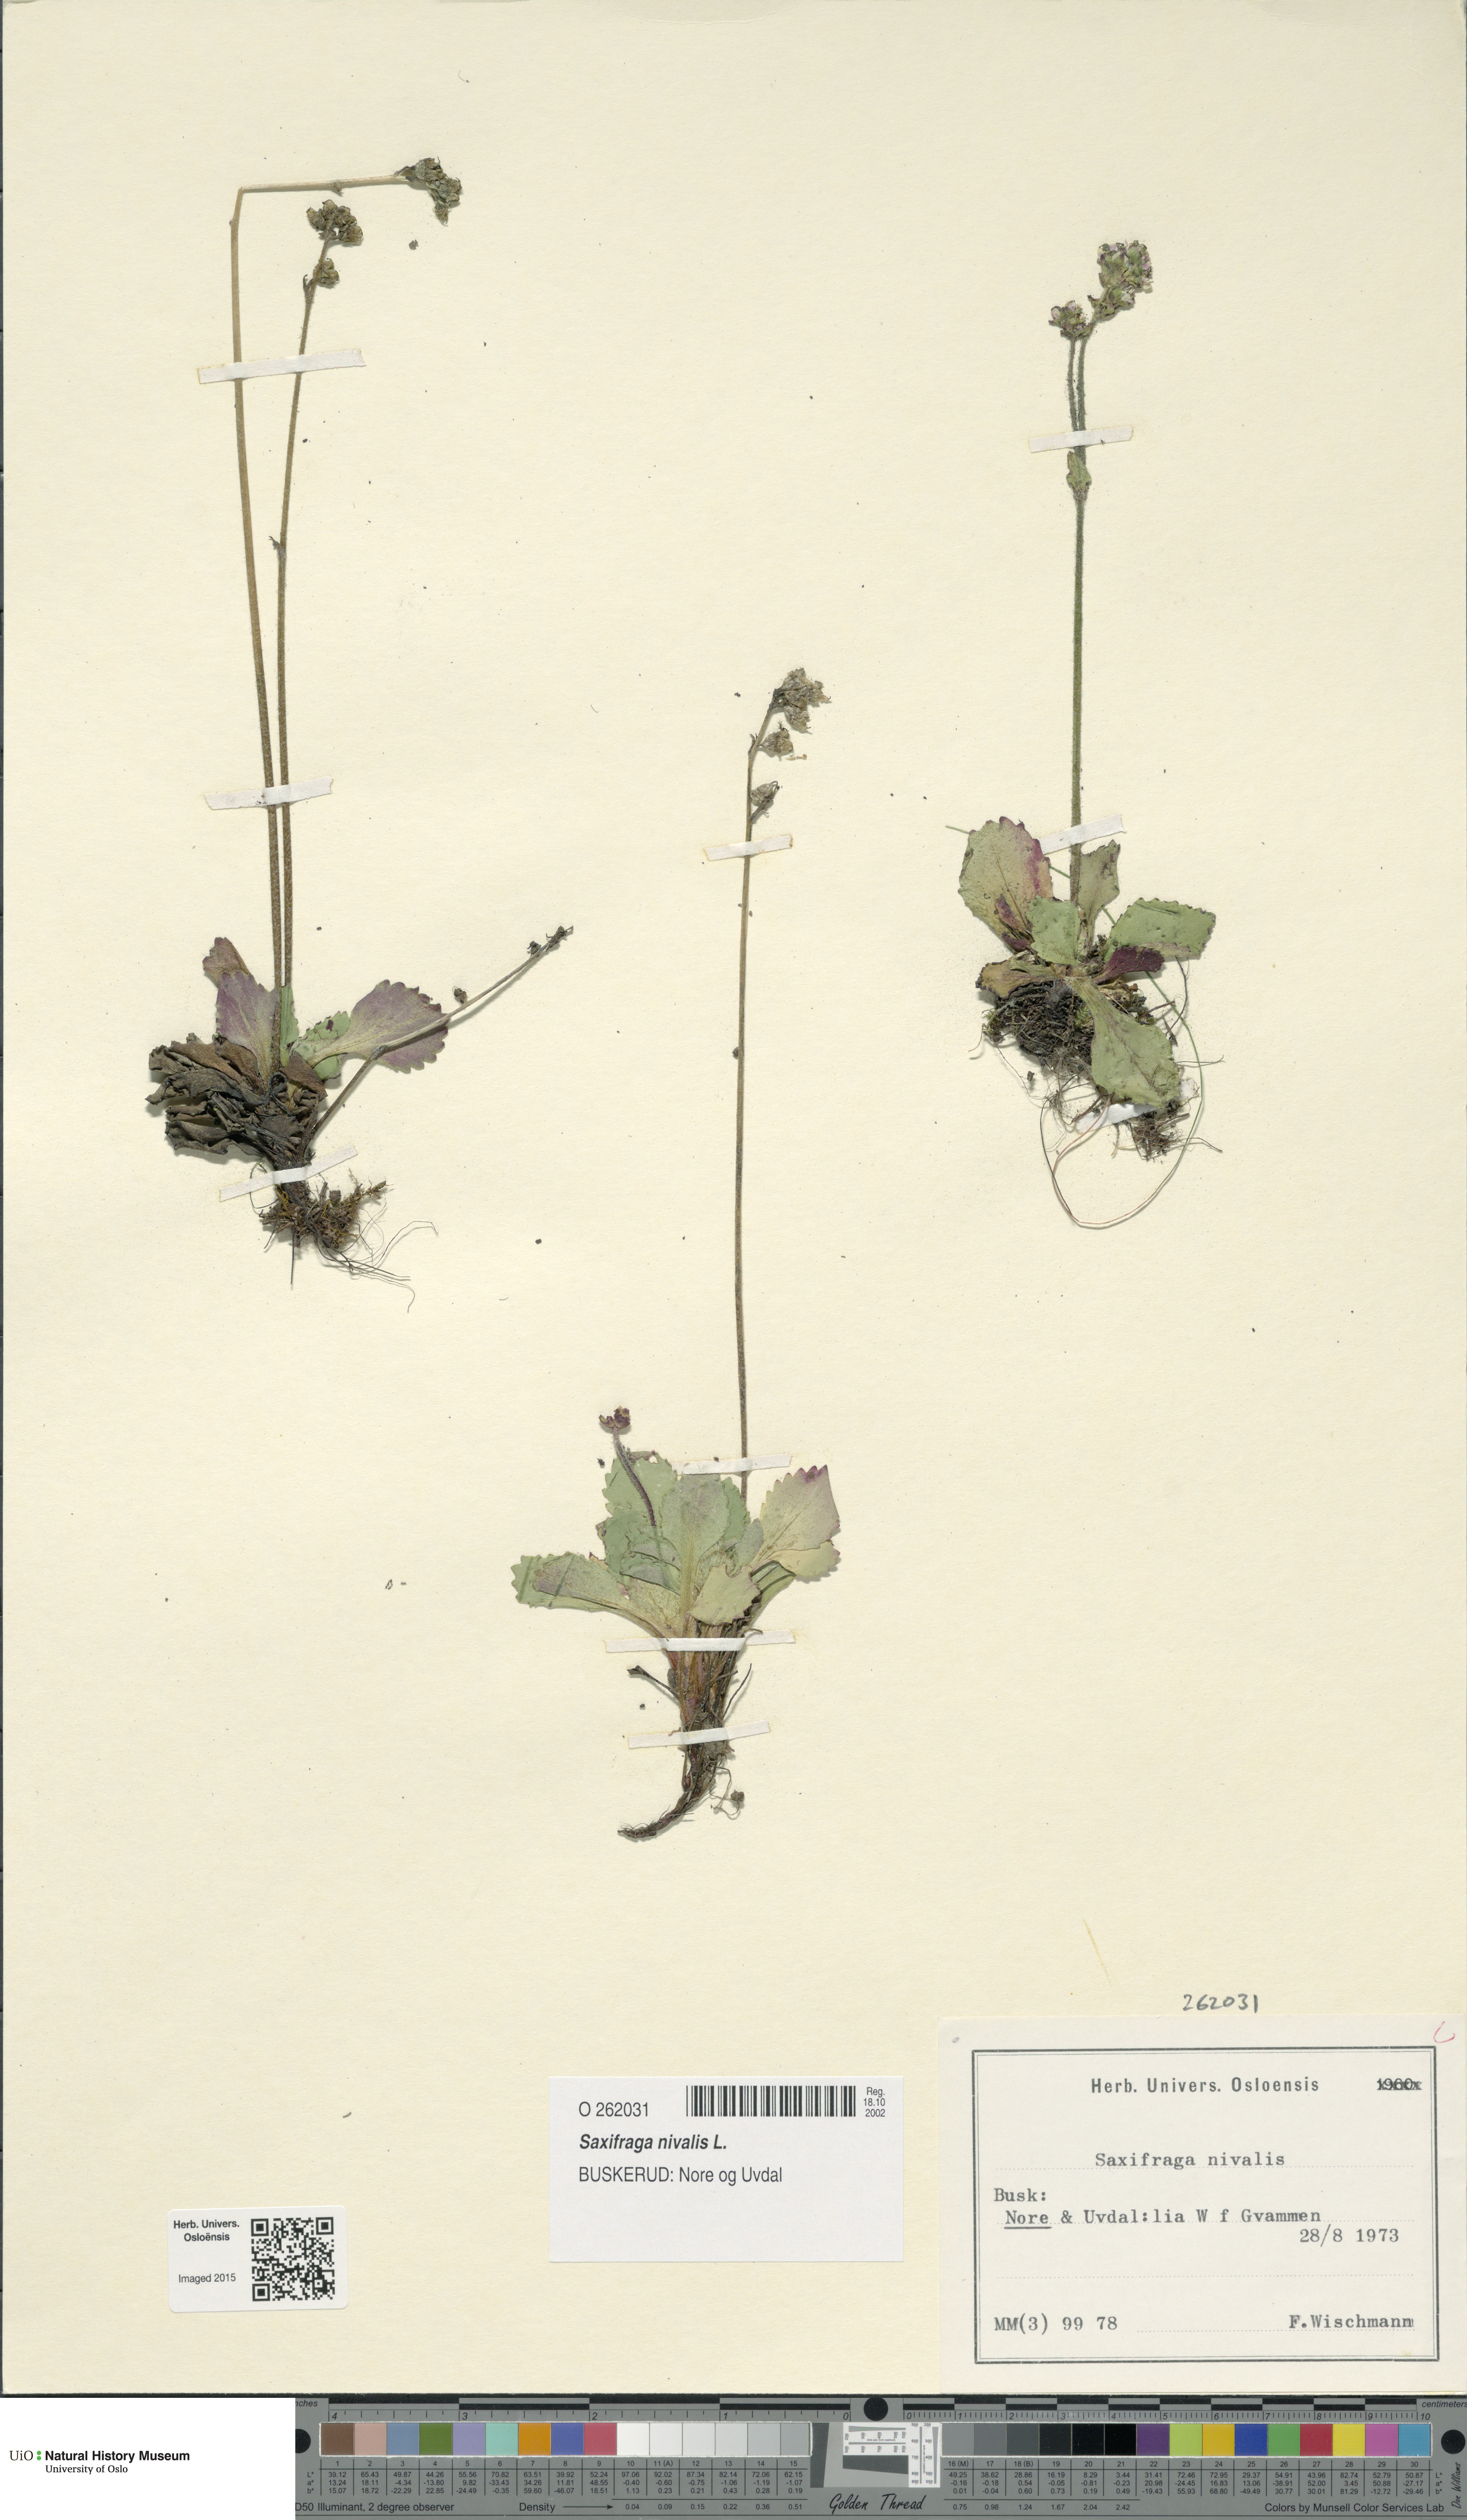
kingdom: Plantae
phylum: Tracheophyta
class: Magnoliopsida
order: Saxifragales
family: Saxifragaceae
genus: Micranthes
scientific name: Micranthes nivalis
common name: Alpine saxifrage
